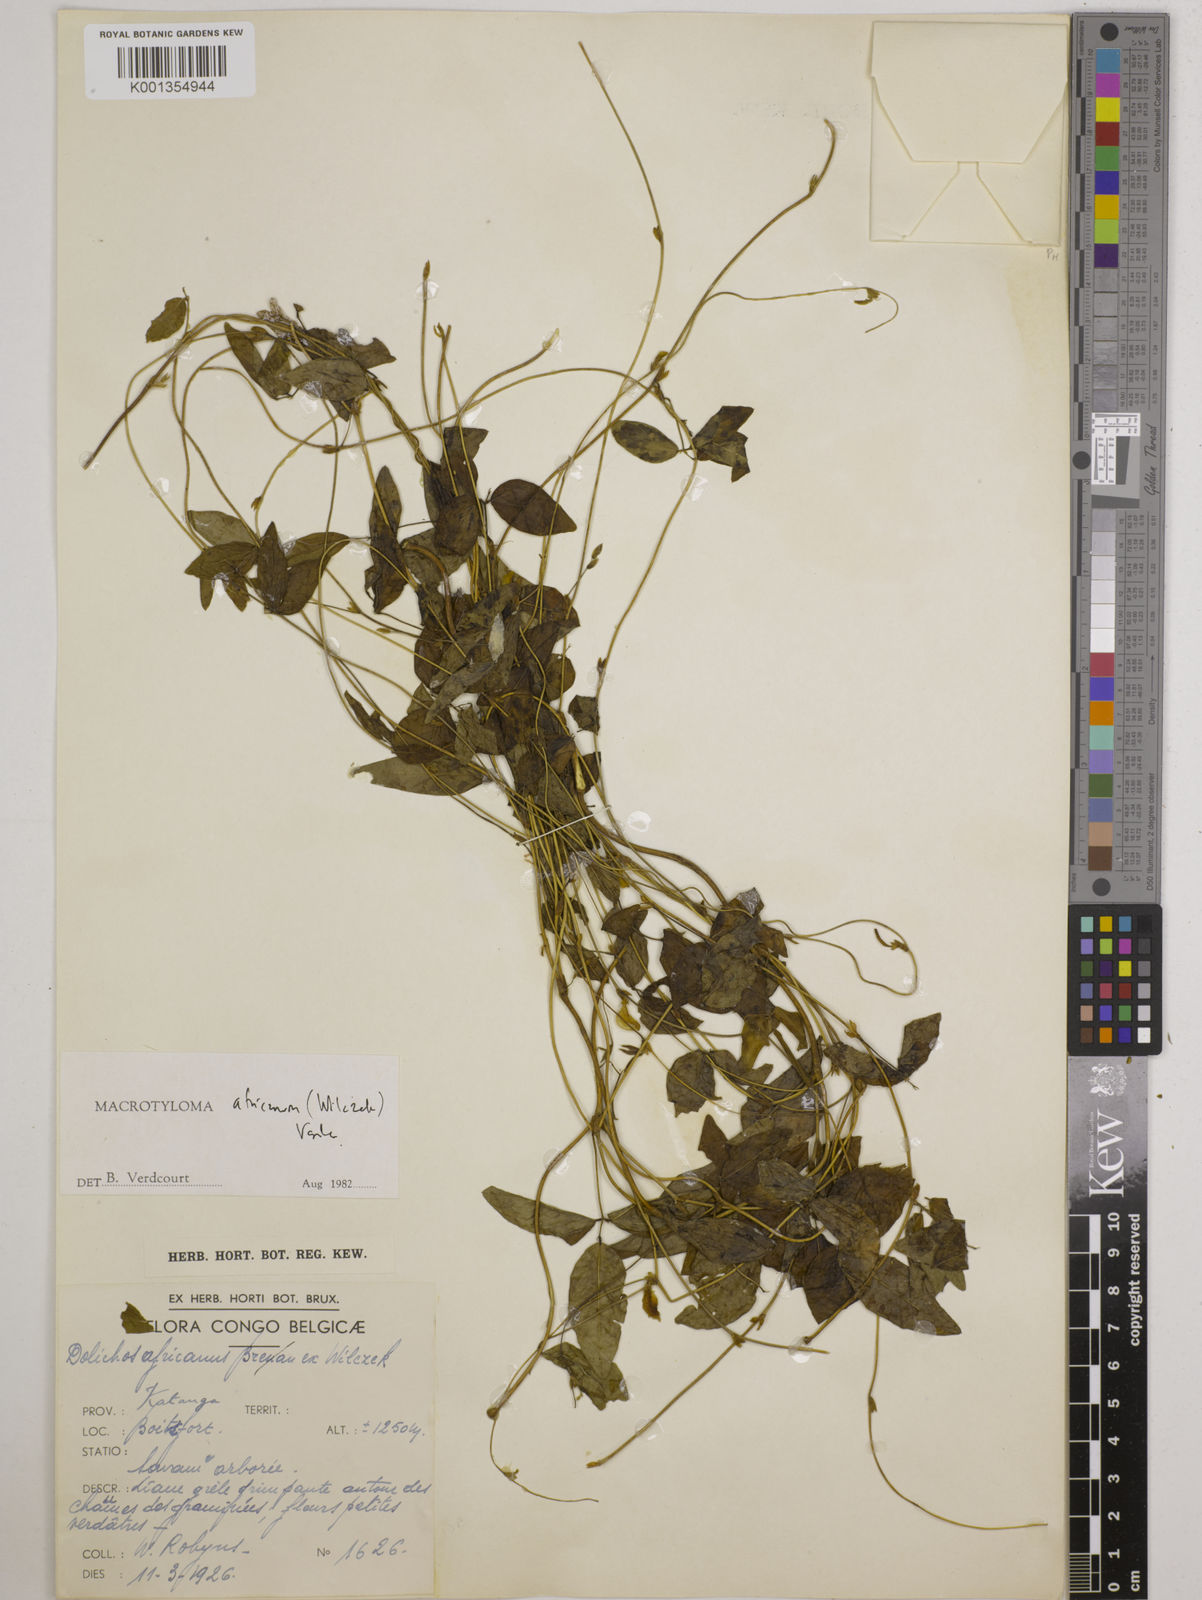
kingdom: Plantae
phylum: Tracheophyta
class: Magnoliopsida
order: Fabales
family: Fabaceae
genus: Macrotyloma
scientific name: Macrotyloma africanum
